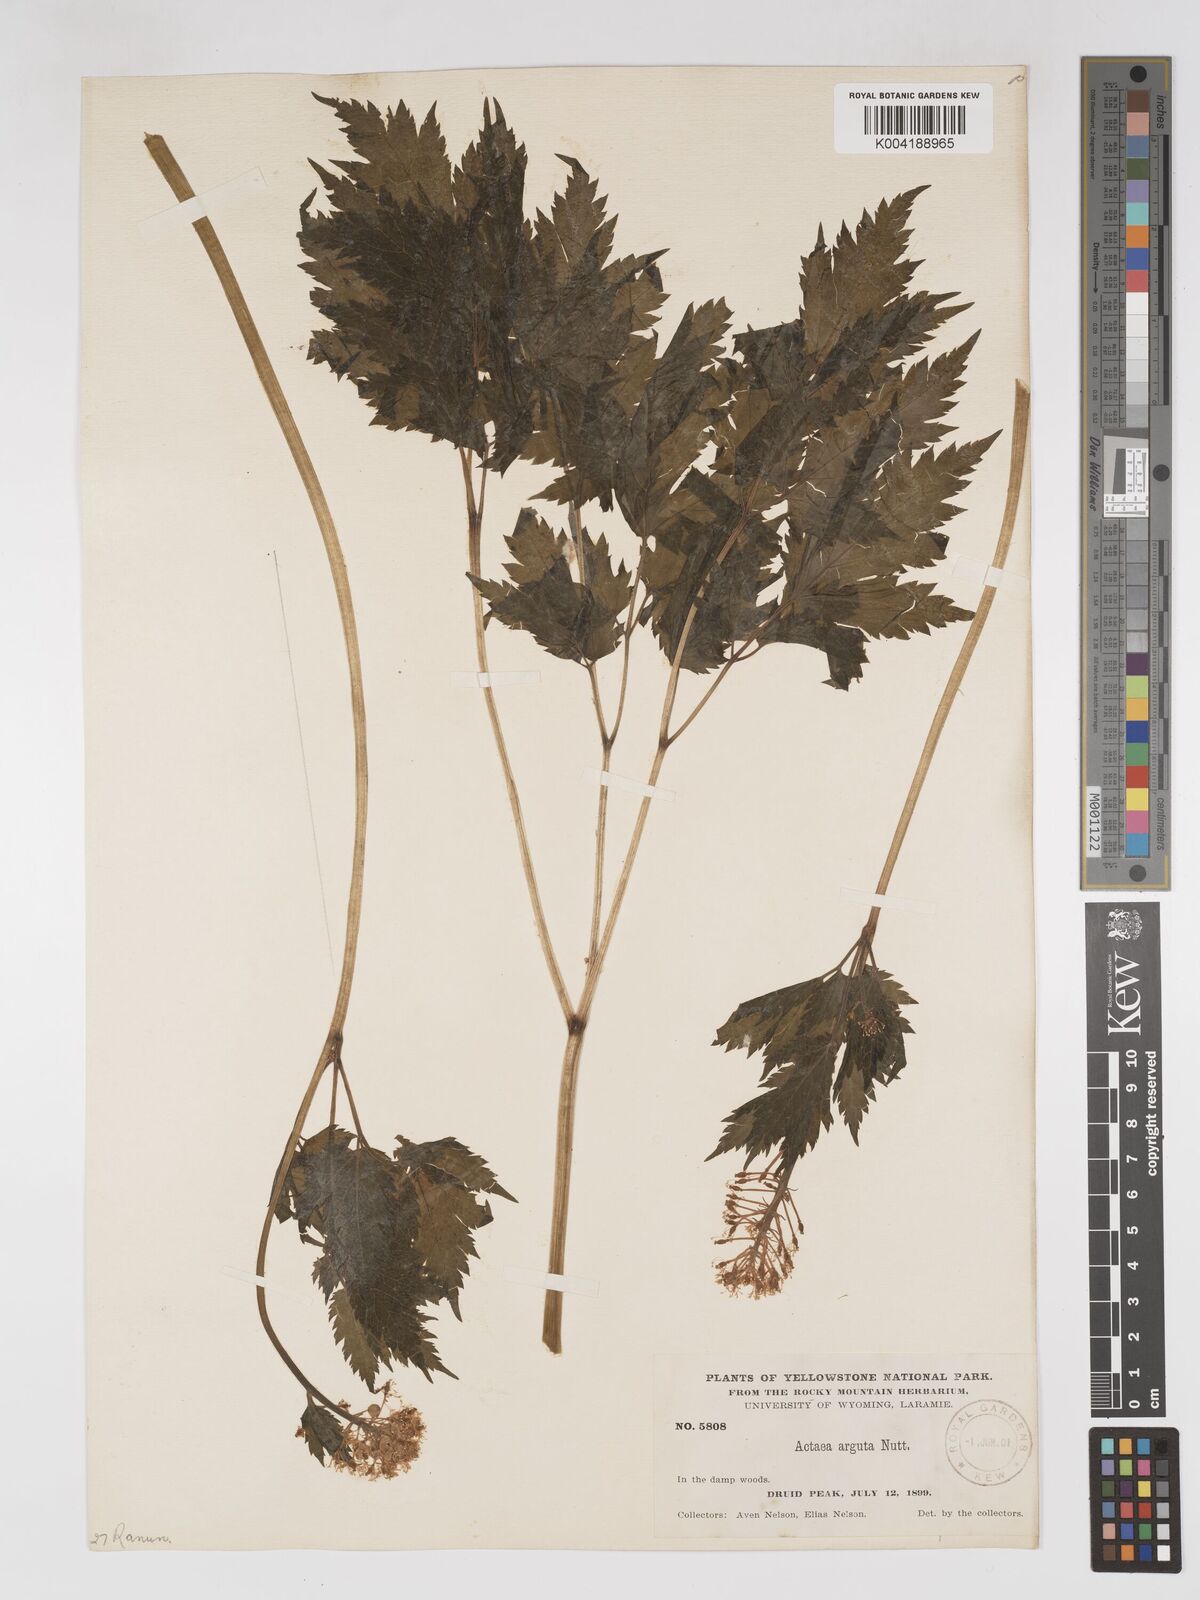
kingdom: Plantae
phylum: Tracheophyta
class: Magnoliopsida
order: Ranunculales
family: Ranunculaceae
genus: Actaea
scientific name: Actaea rubra
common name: Red baneberry
